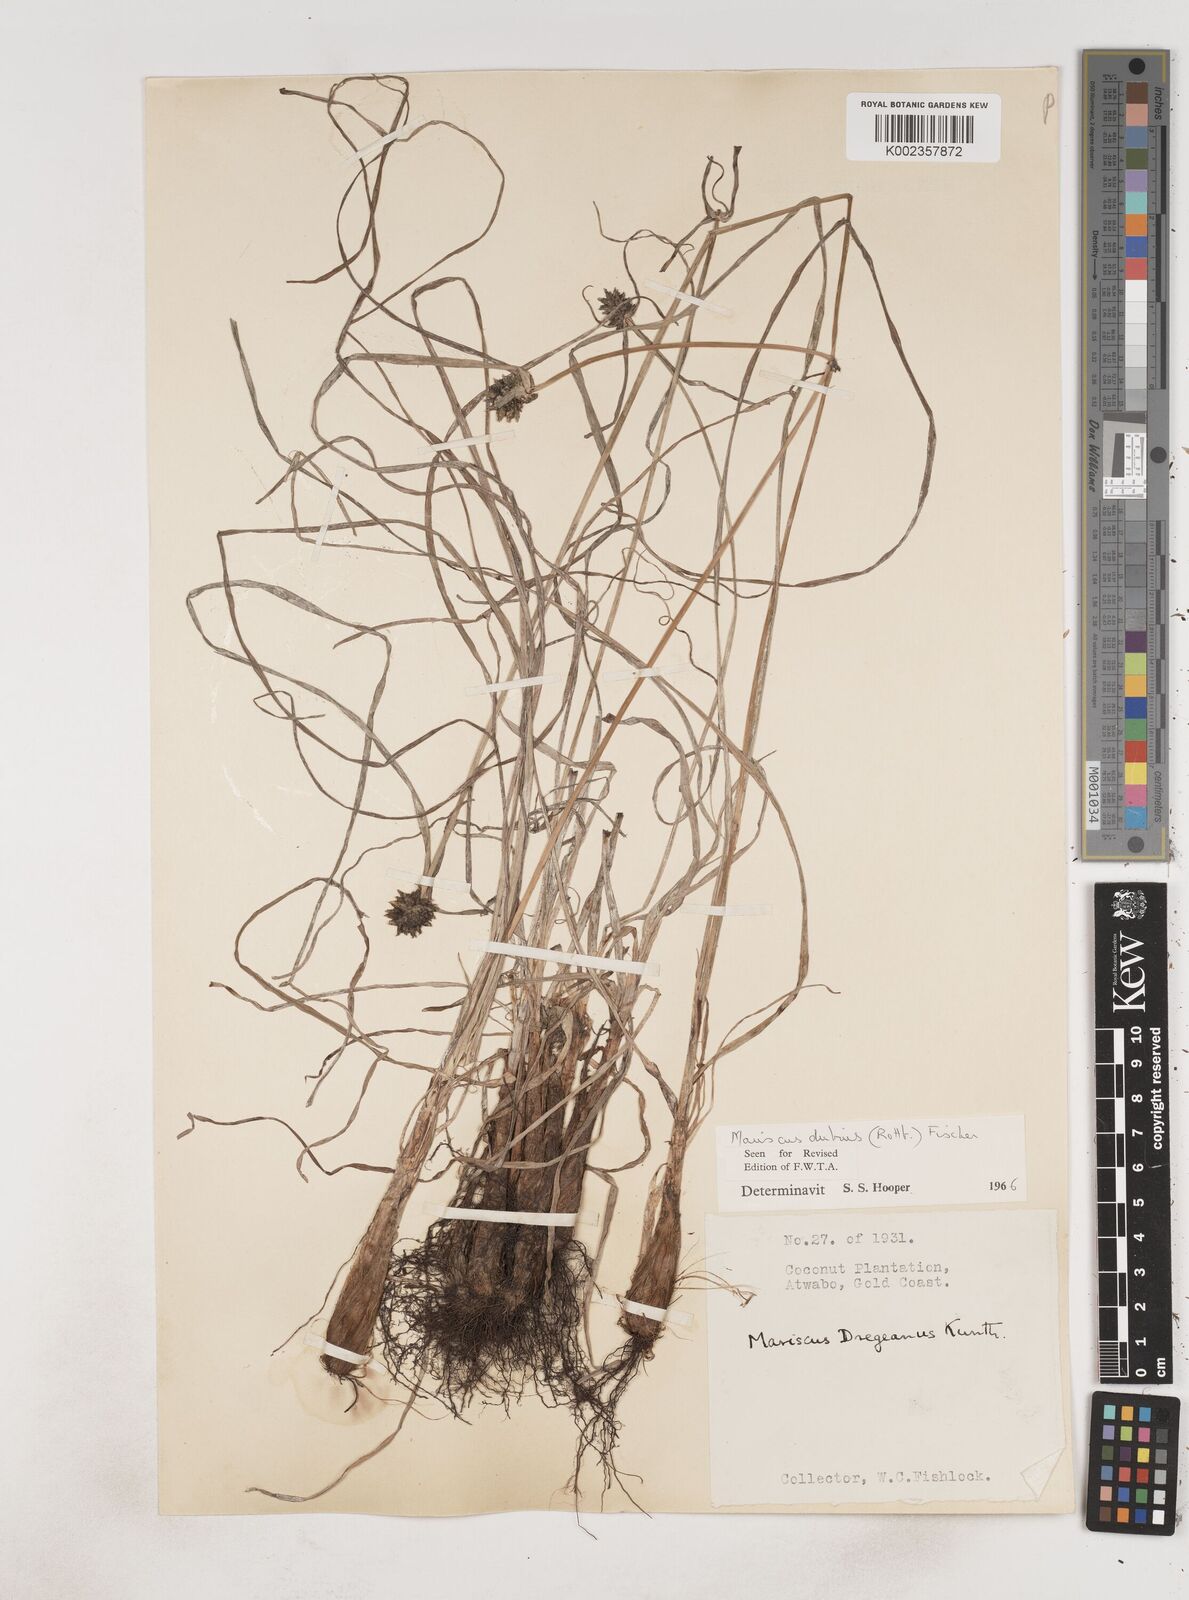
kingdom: Plantae
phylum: Tracheophyta
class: Liliopsida
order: Poales
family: Cyperaceae
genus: Cyperus
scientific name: Cyperus dubius
